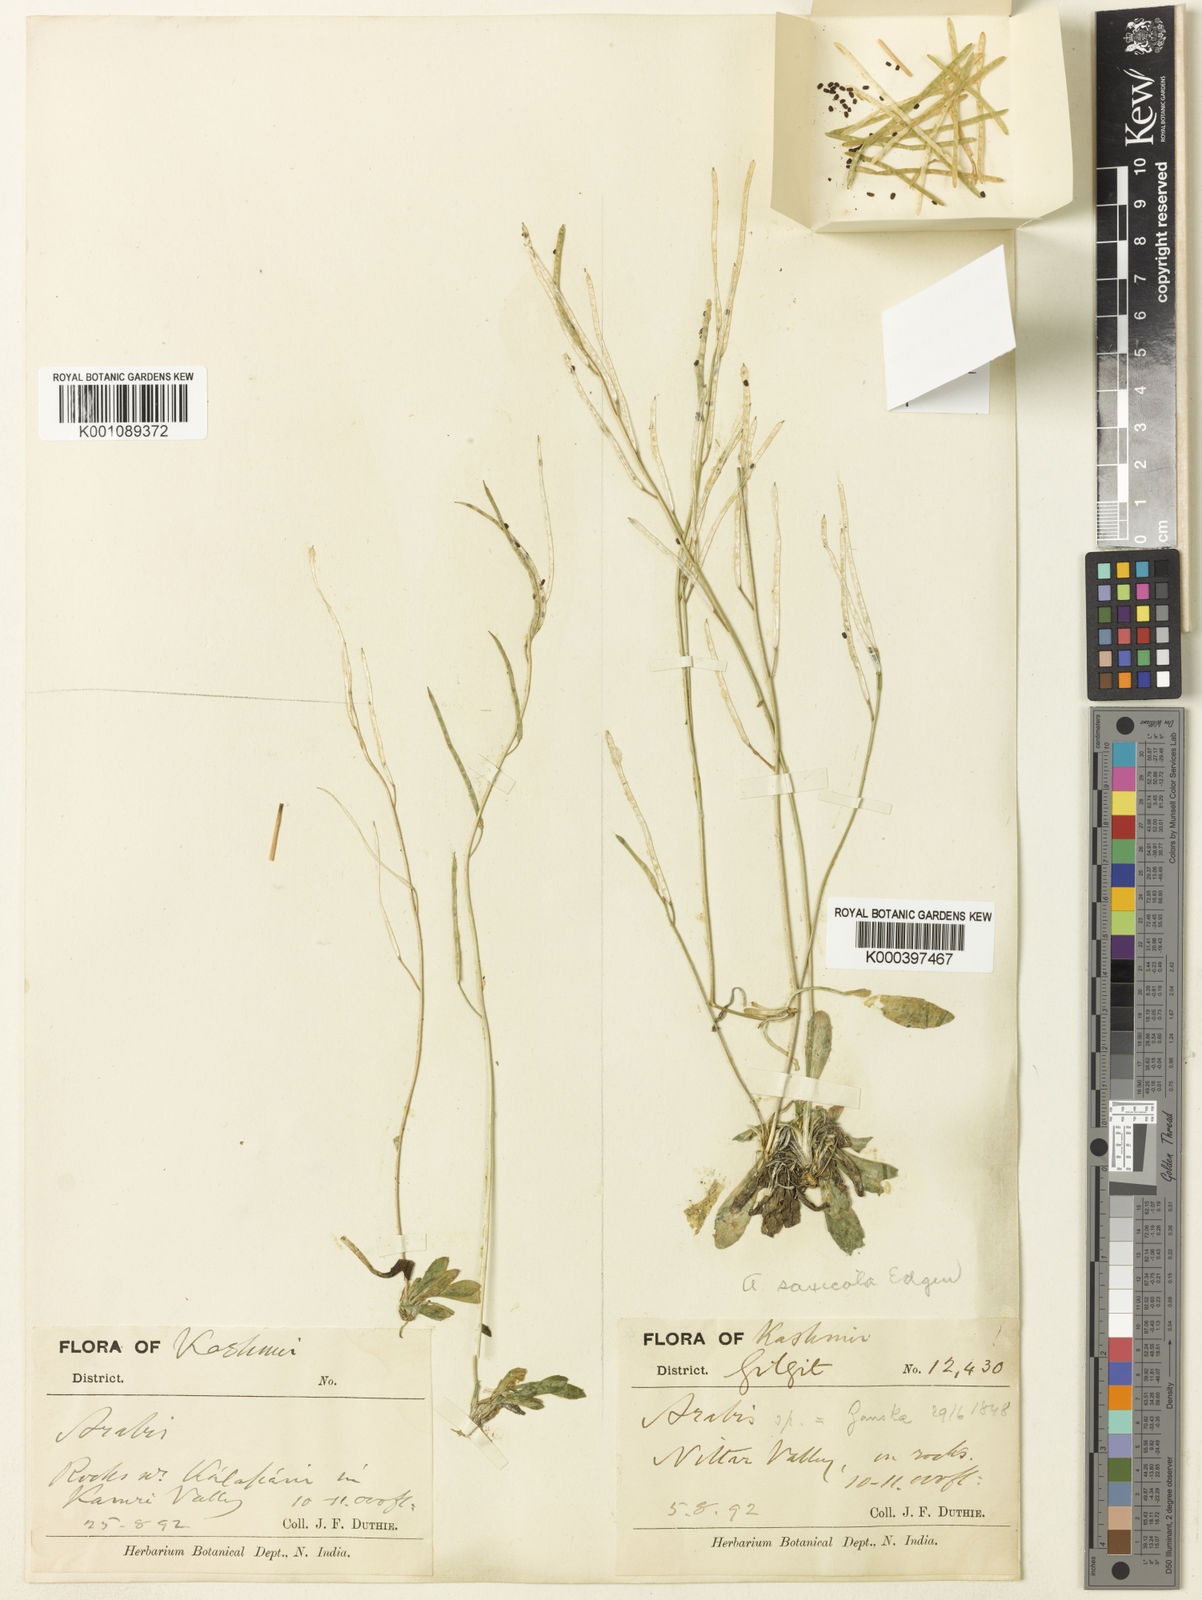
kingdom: Plantae
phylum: Tracheophyta
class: Magnoliopsida
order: Brassicales
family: Brassicaceae
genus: Scapiarabis
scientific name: Scapiarabis saxicola
